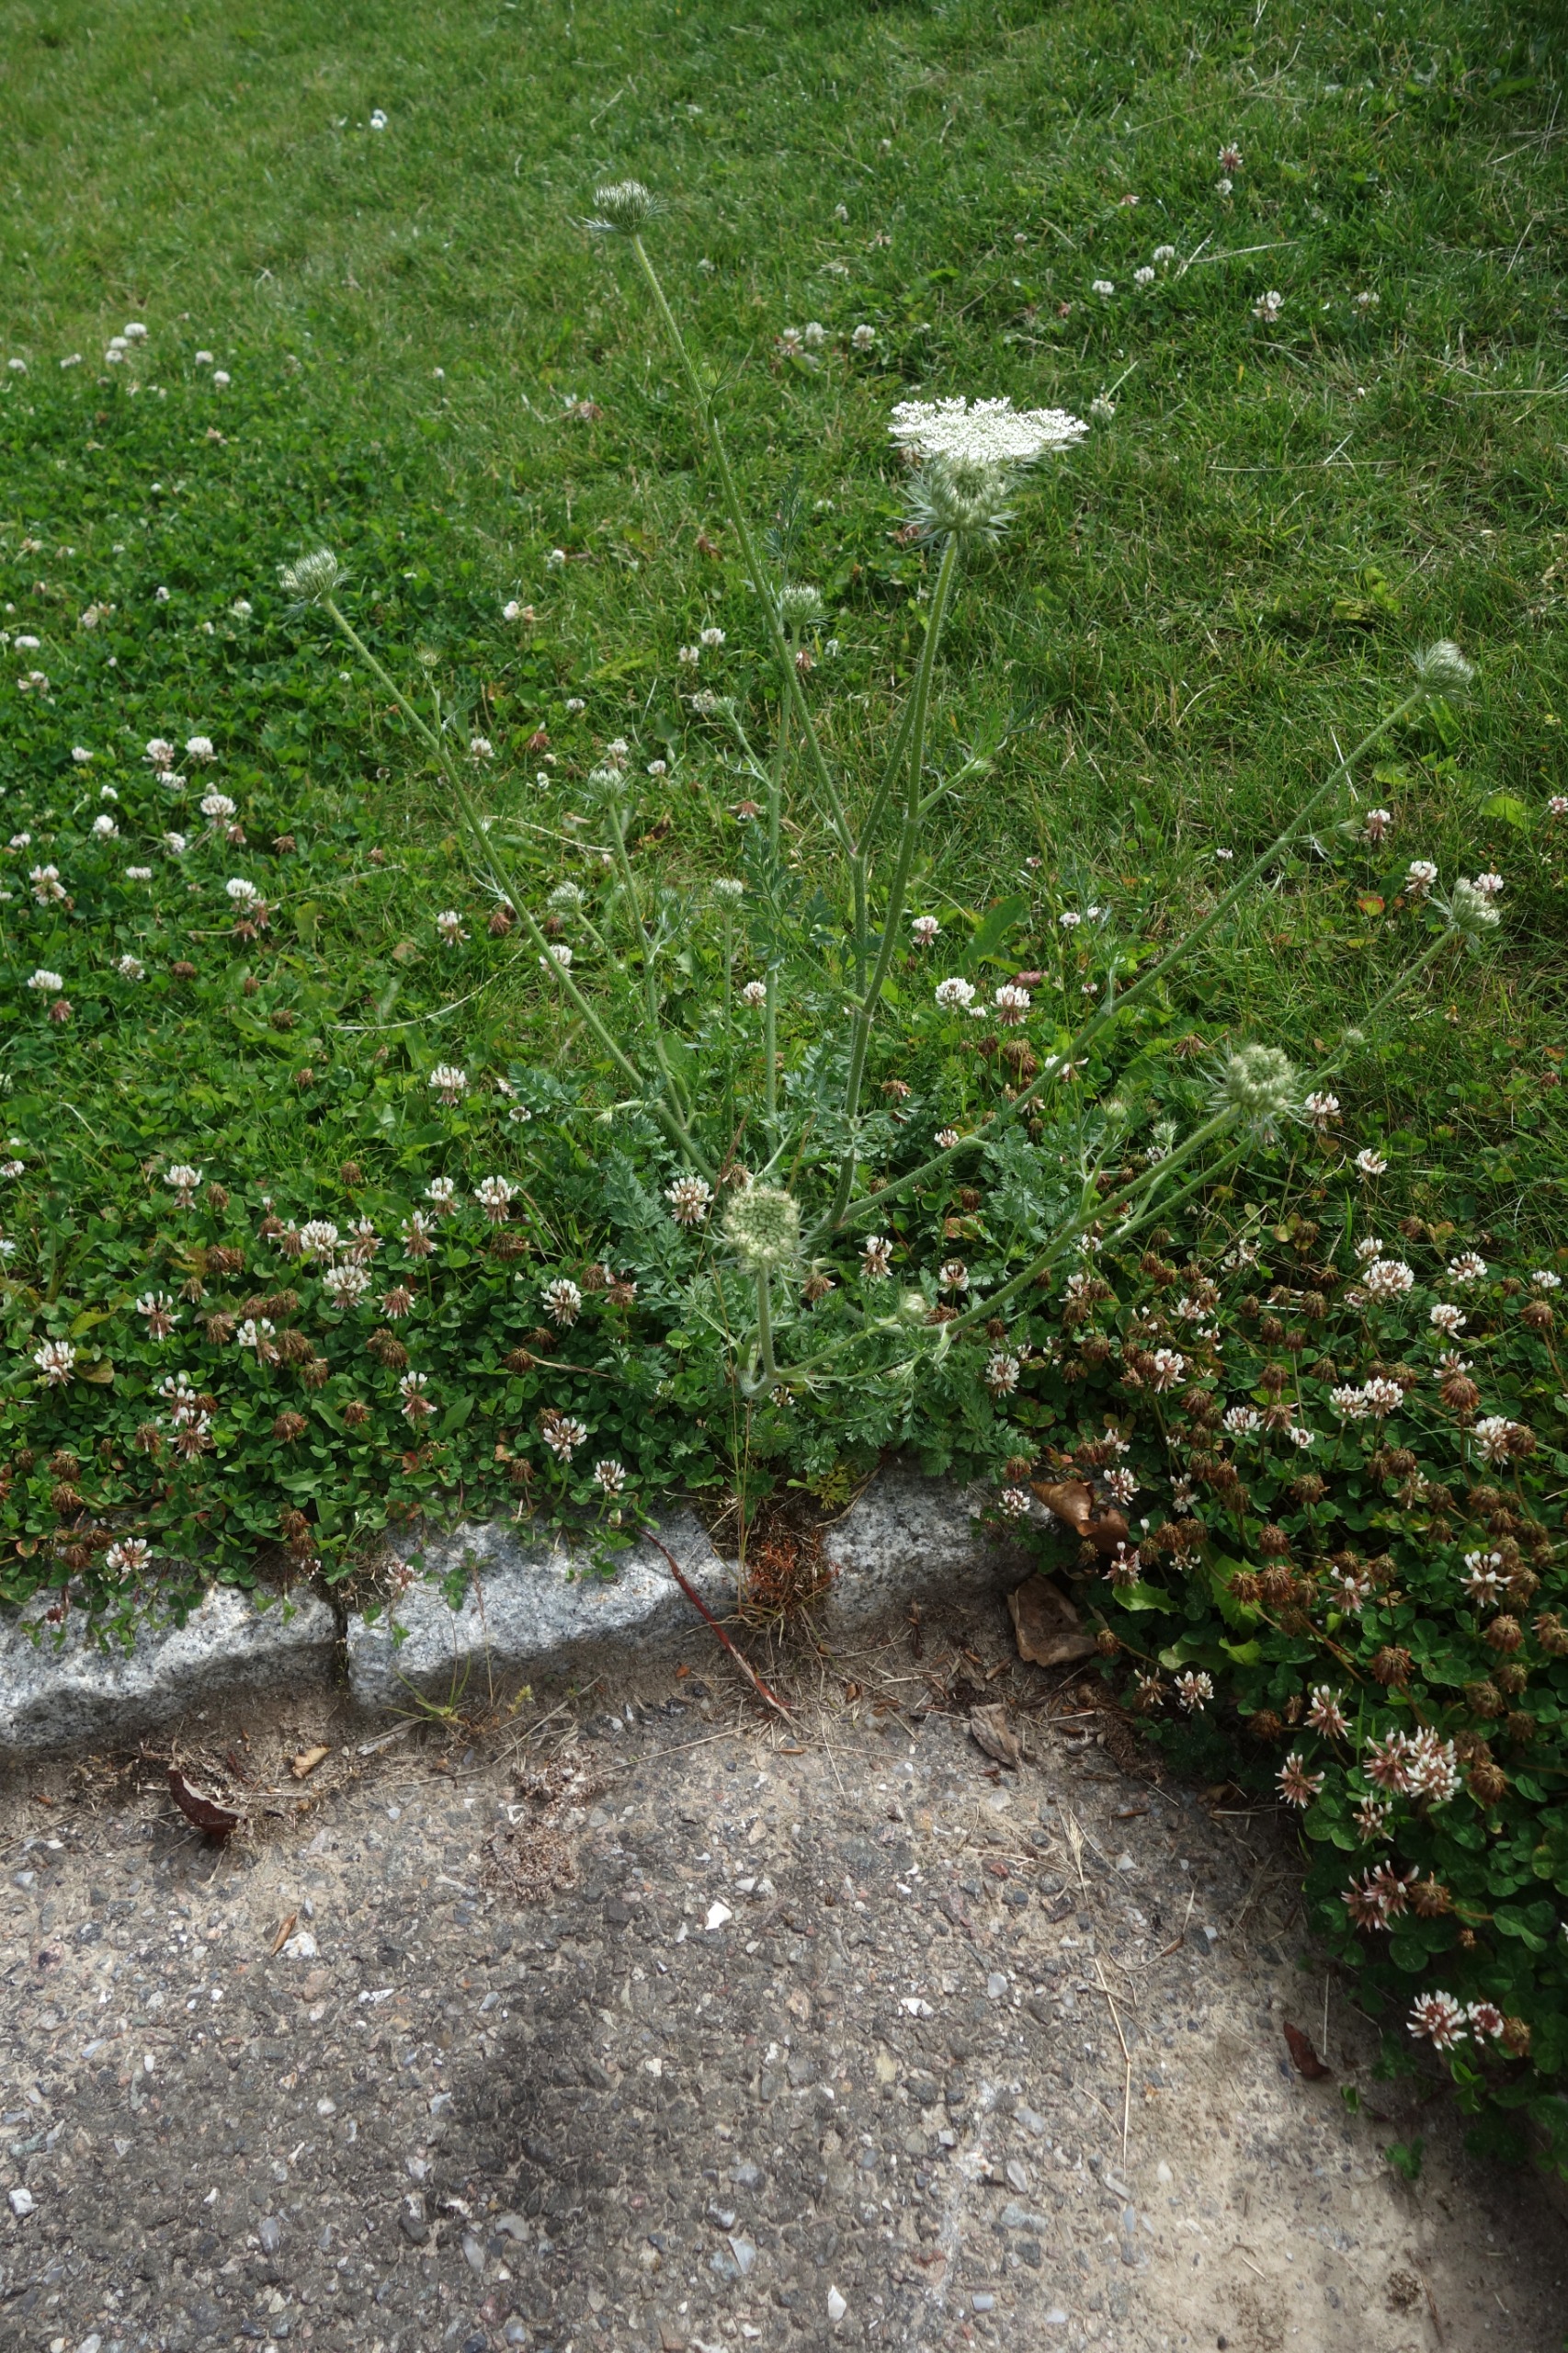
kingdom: Plantae
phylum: Tracheophyta
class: Magnoliopsida
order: Apiales
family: Apiaceae
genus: Daucus
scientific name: Daucus carota
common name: Gulerod
